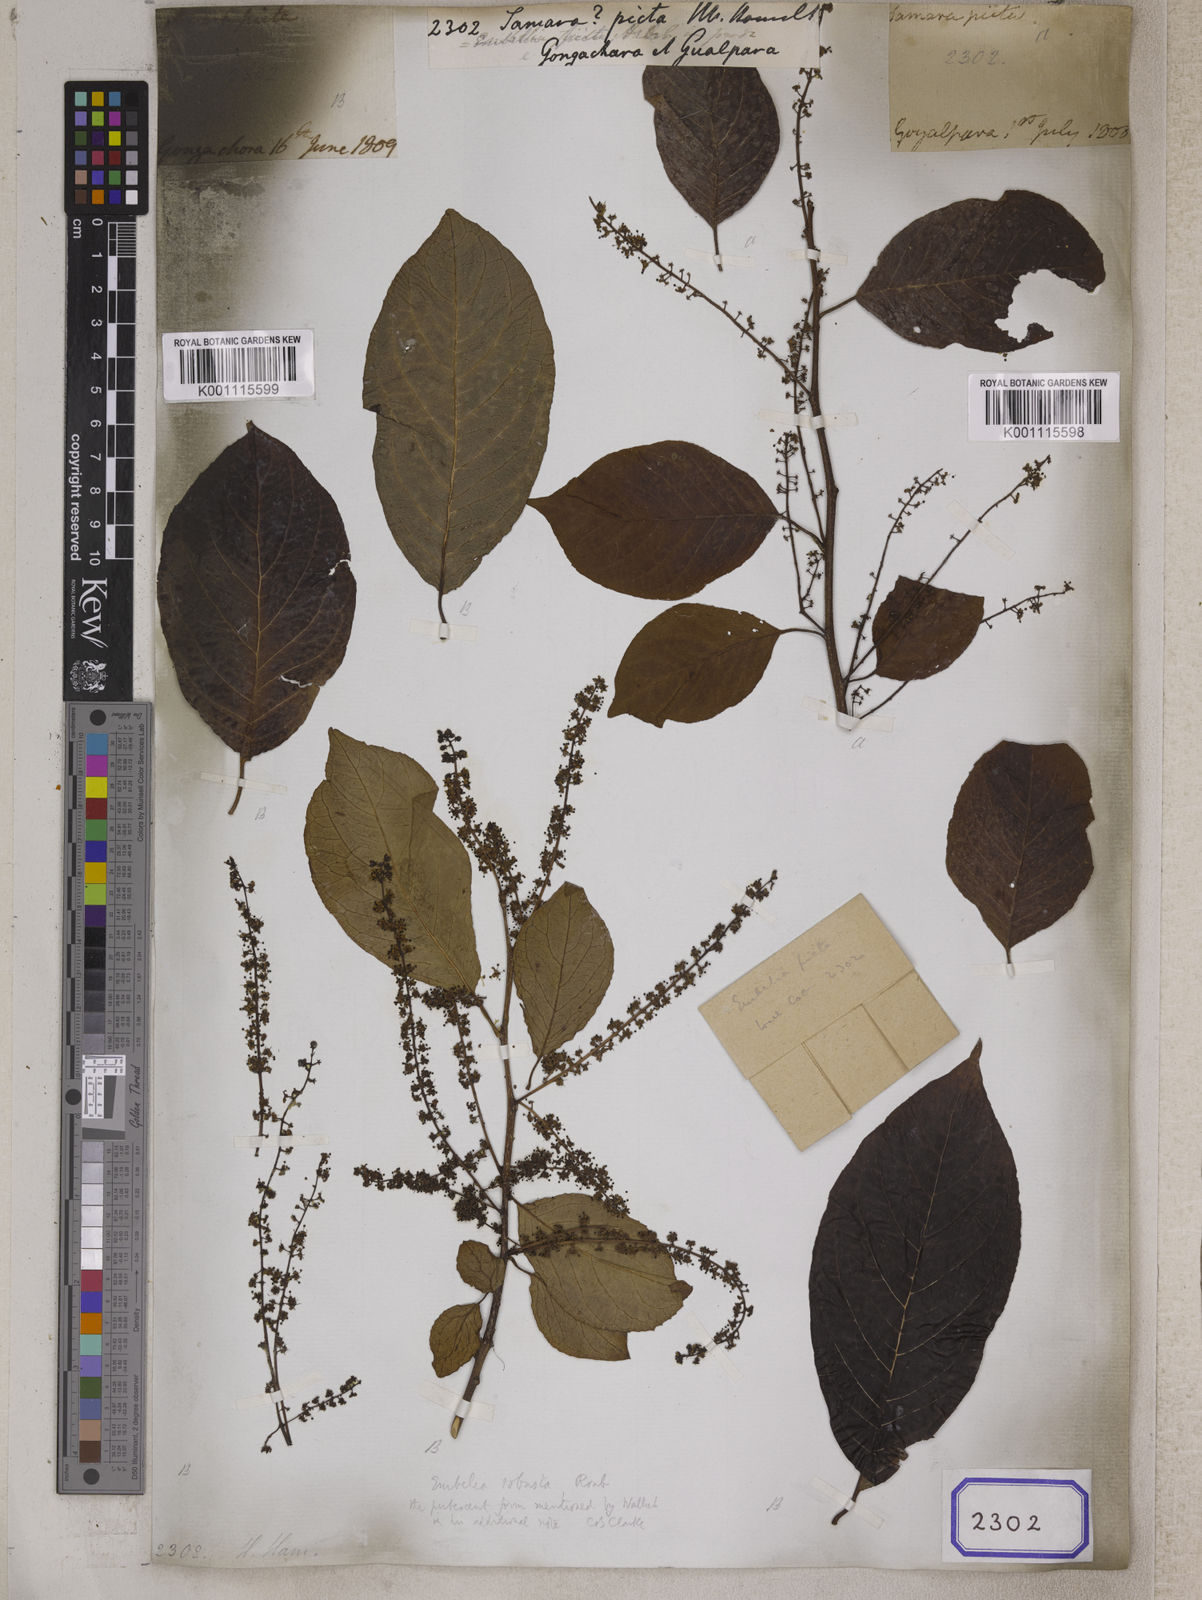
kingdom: Plantae
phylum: Tracheophyta
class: Magnoliopsida
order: Ericales
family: Primulaceae
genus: Embelia
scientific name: Embelia tsjeriam-cottam
